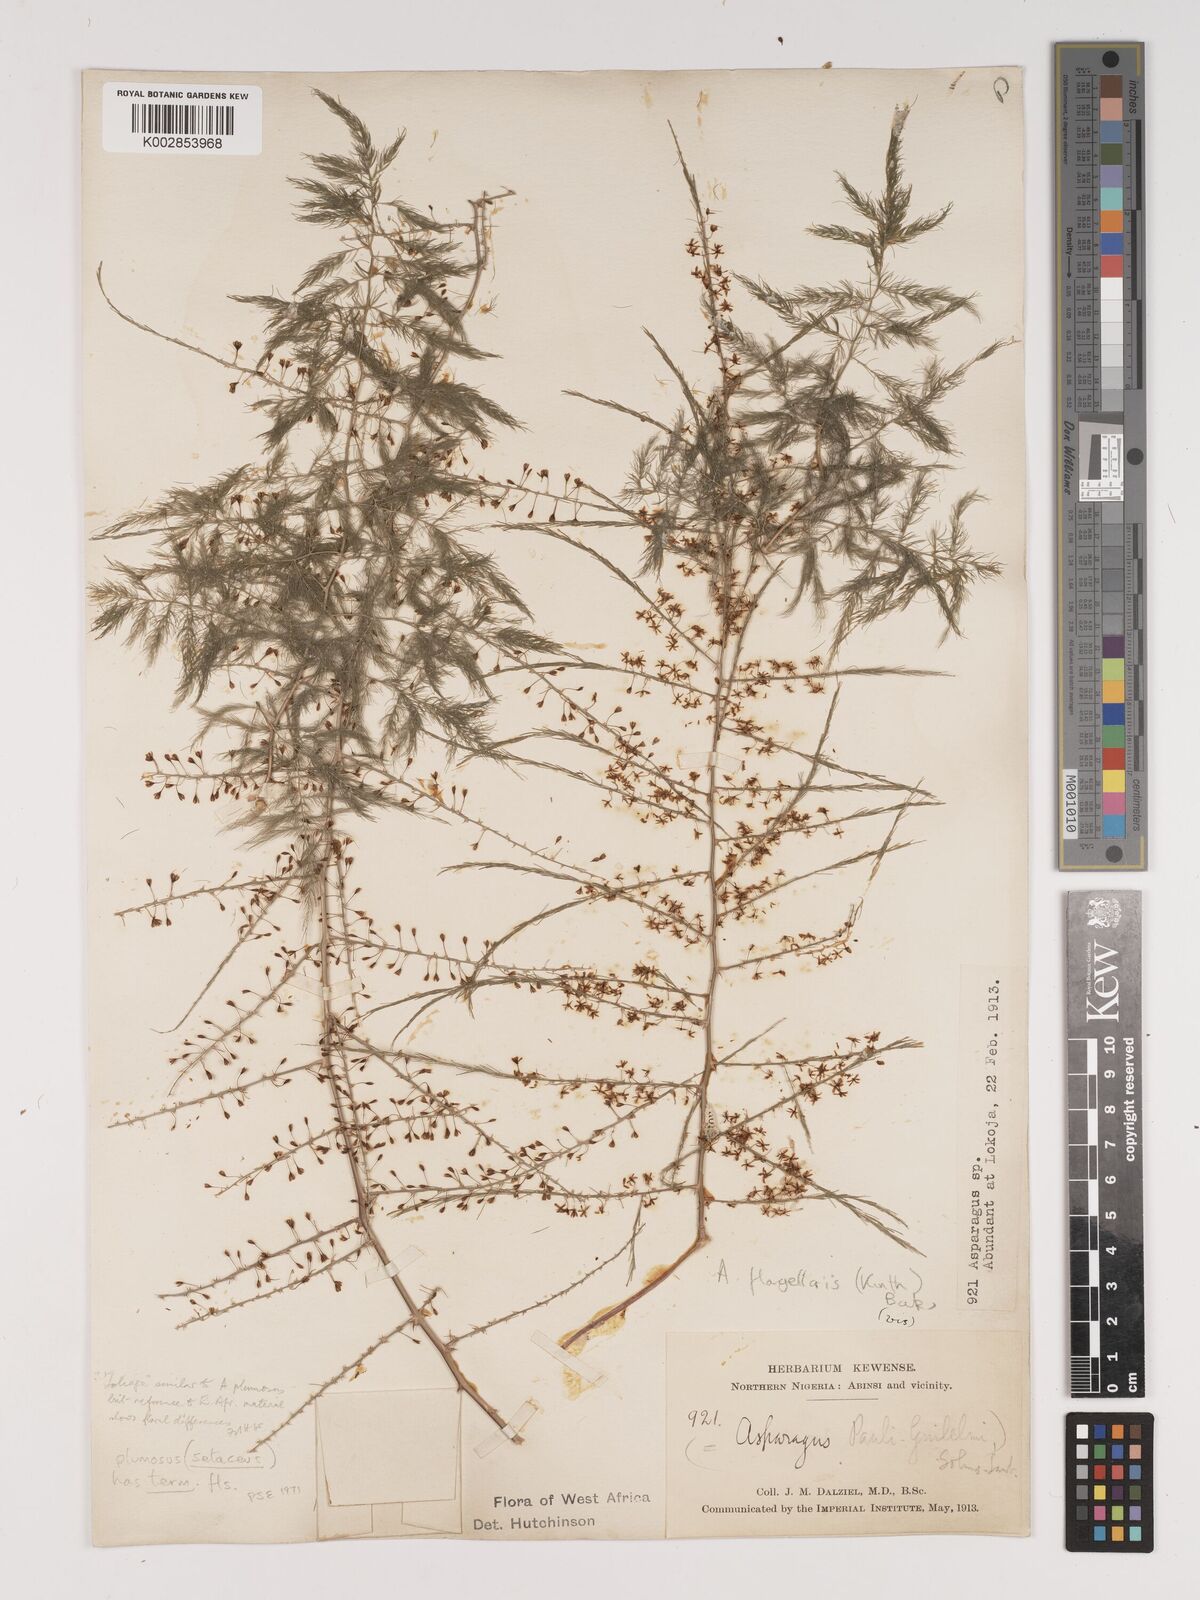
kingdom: Plantae
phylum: Tracheophyta
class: Liliopsida
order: Asparagales
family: Asparagaceae
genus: Asparagus
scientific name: Asparagus flagellaris
